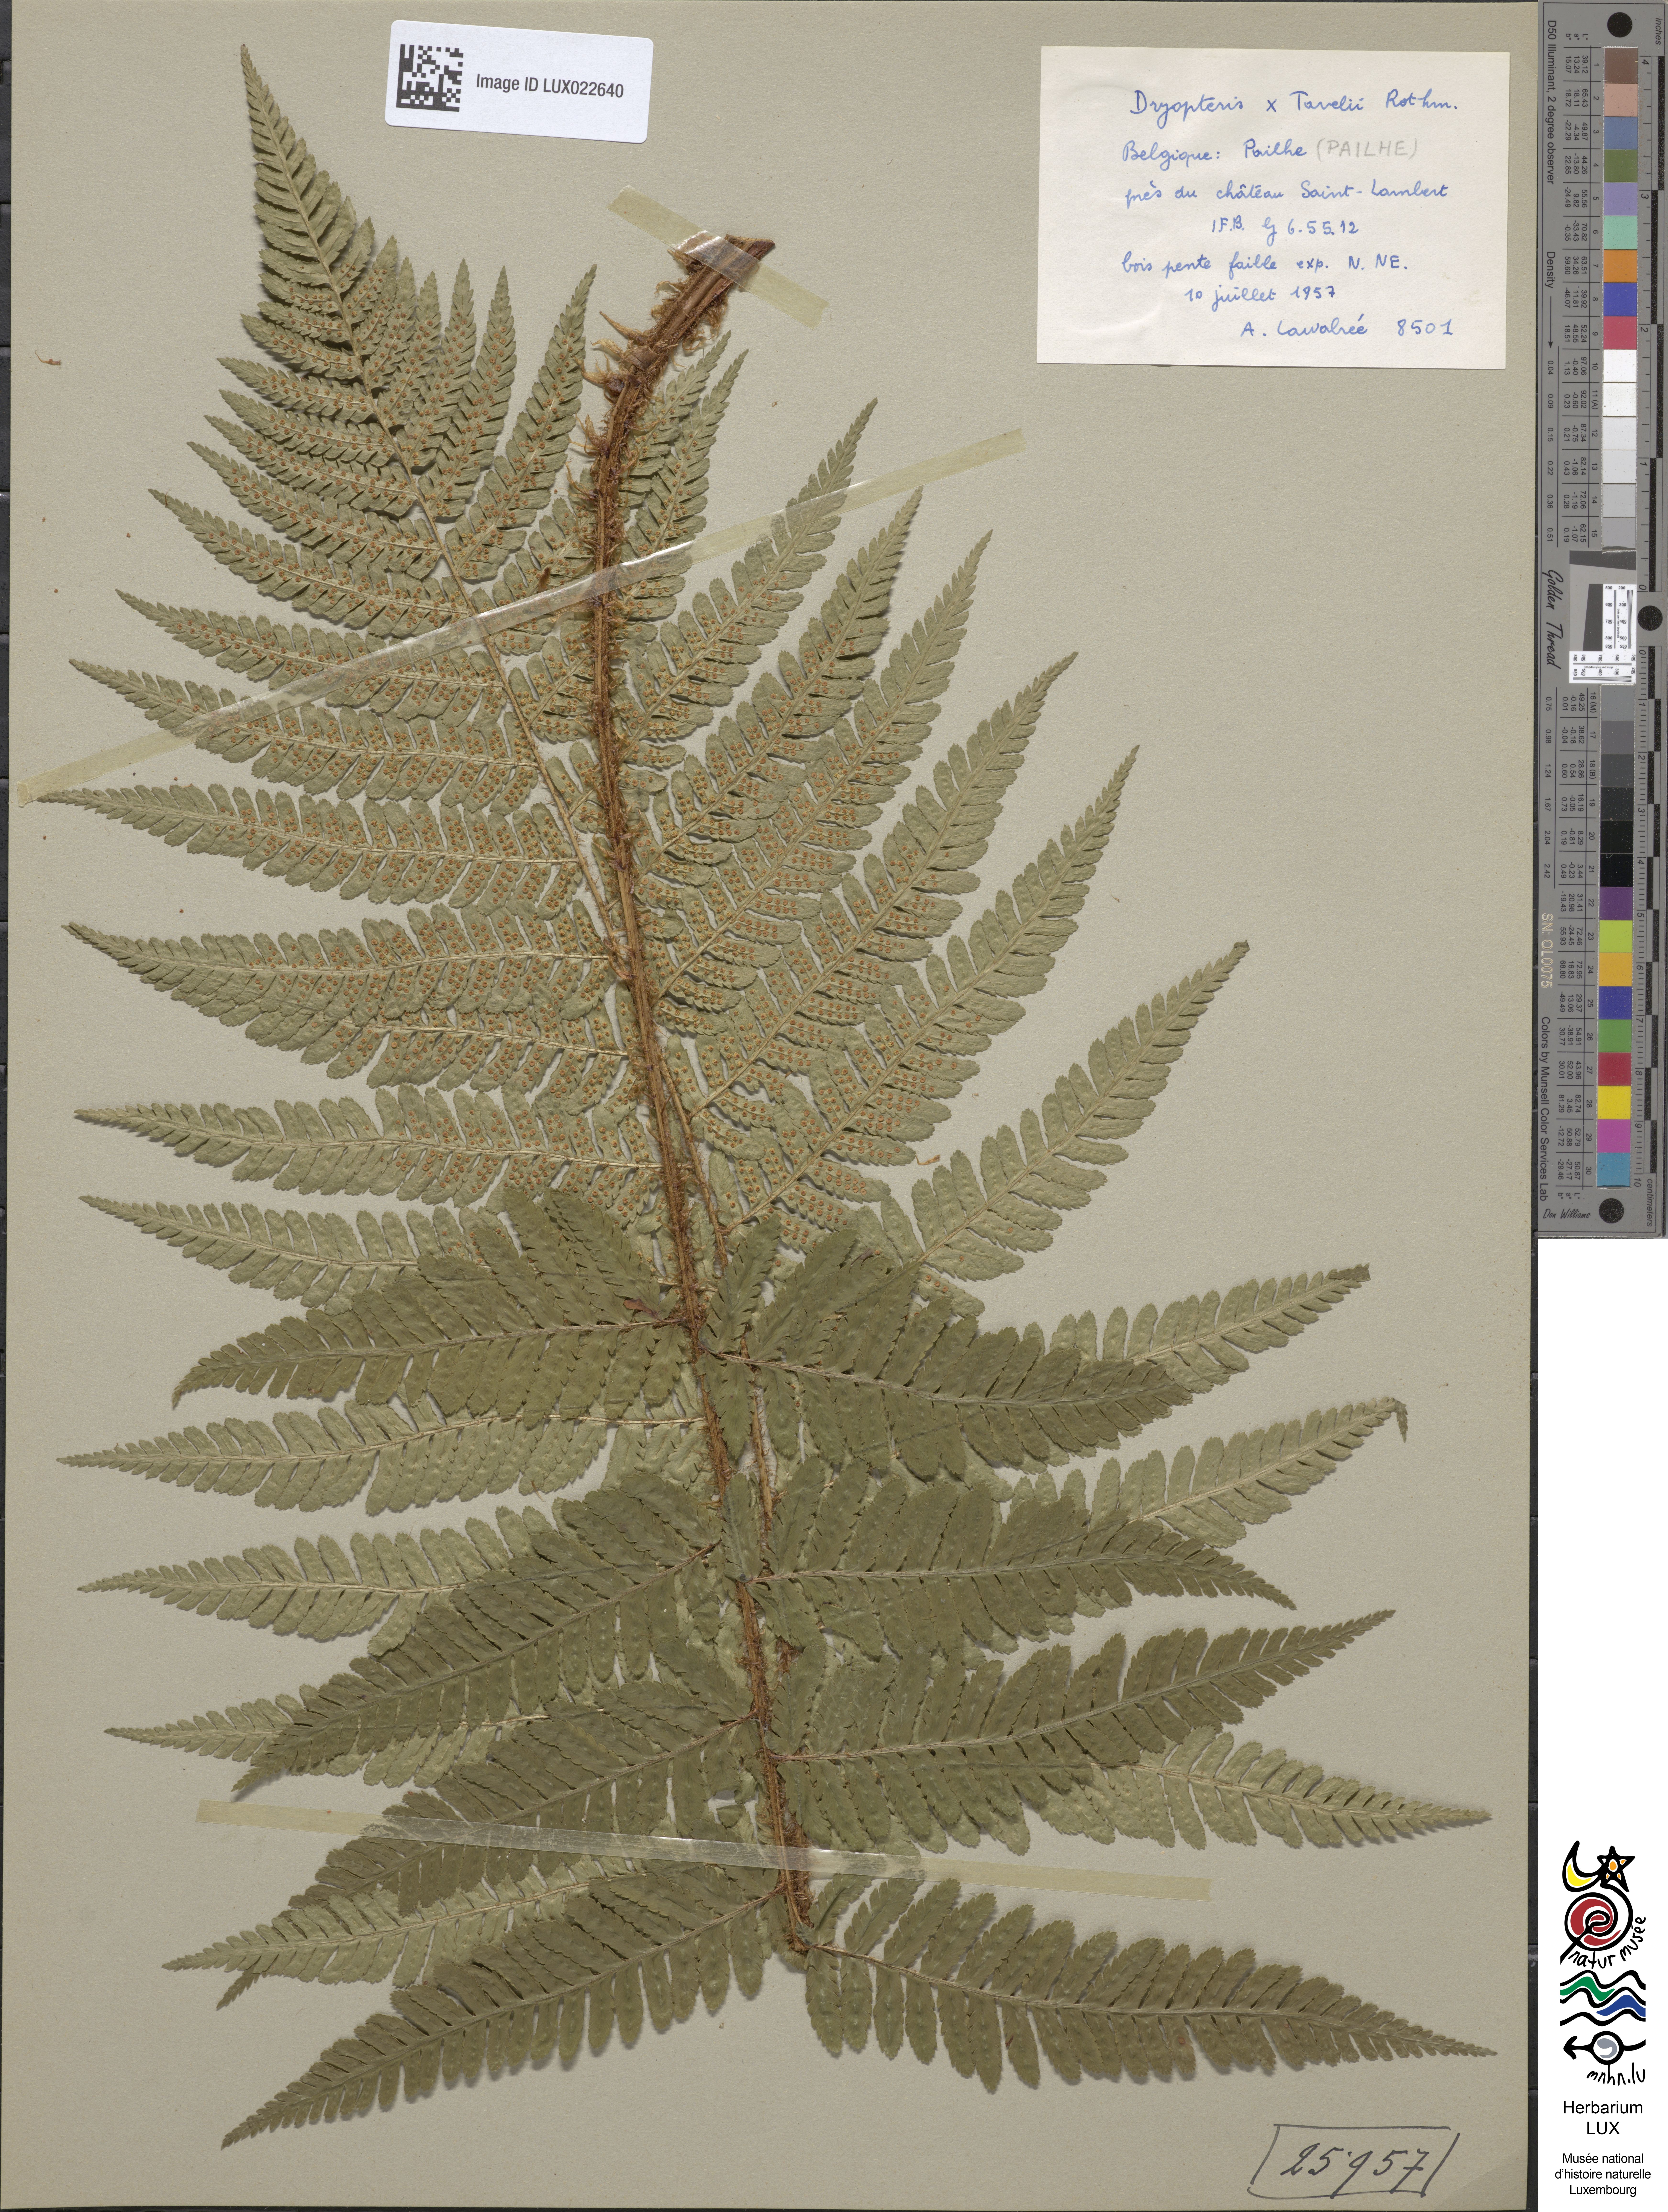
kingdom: Plantae
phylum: Tracheophyta
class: Polypodiopsida
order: Polypodiales
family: Dryopteridaceae
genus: Dryopteris
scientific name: Dryopteris borreri
